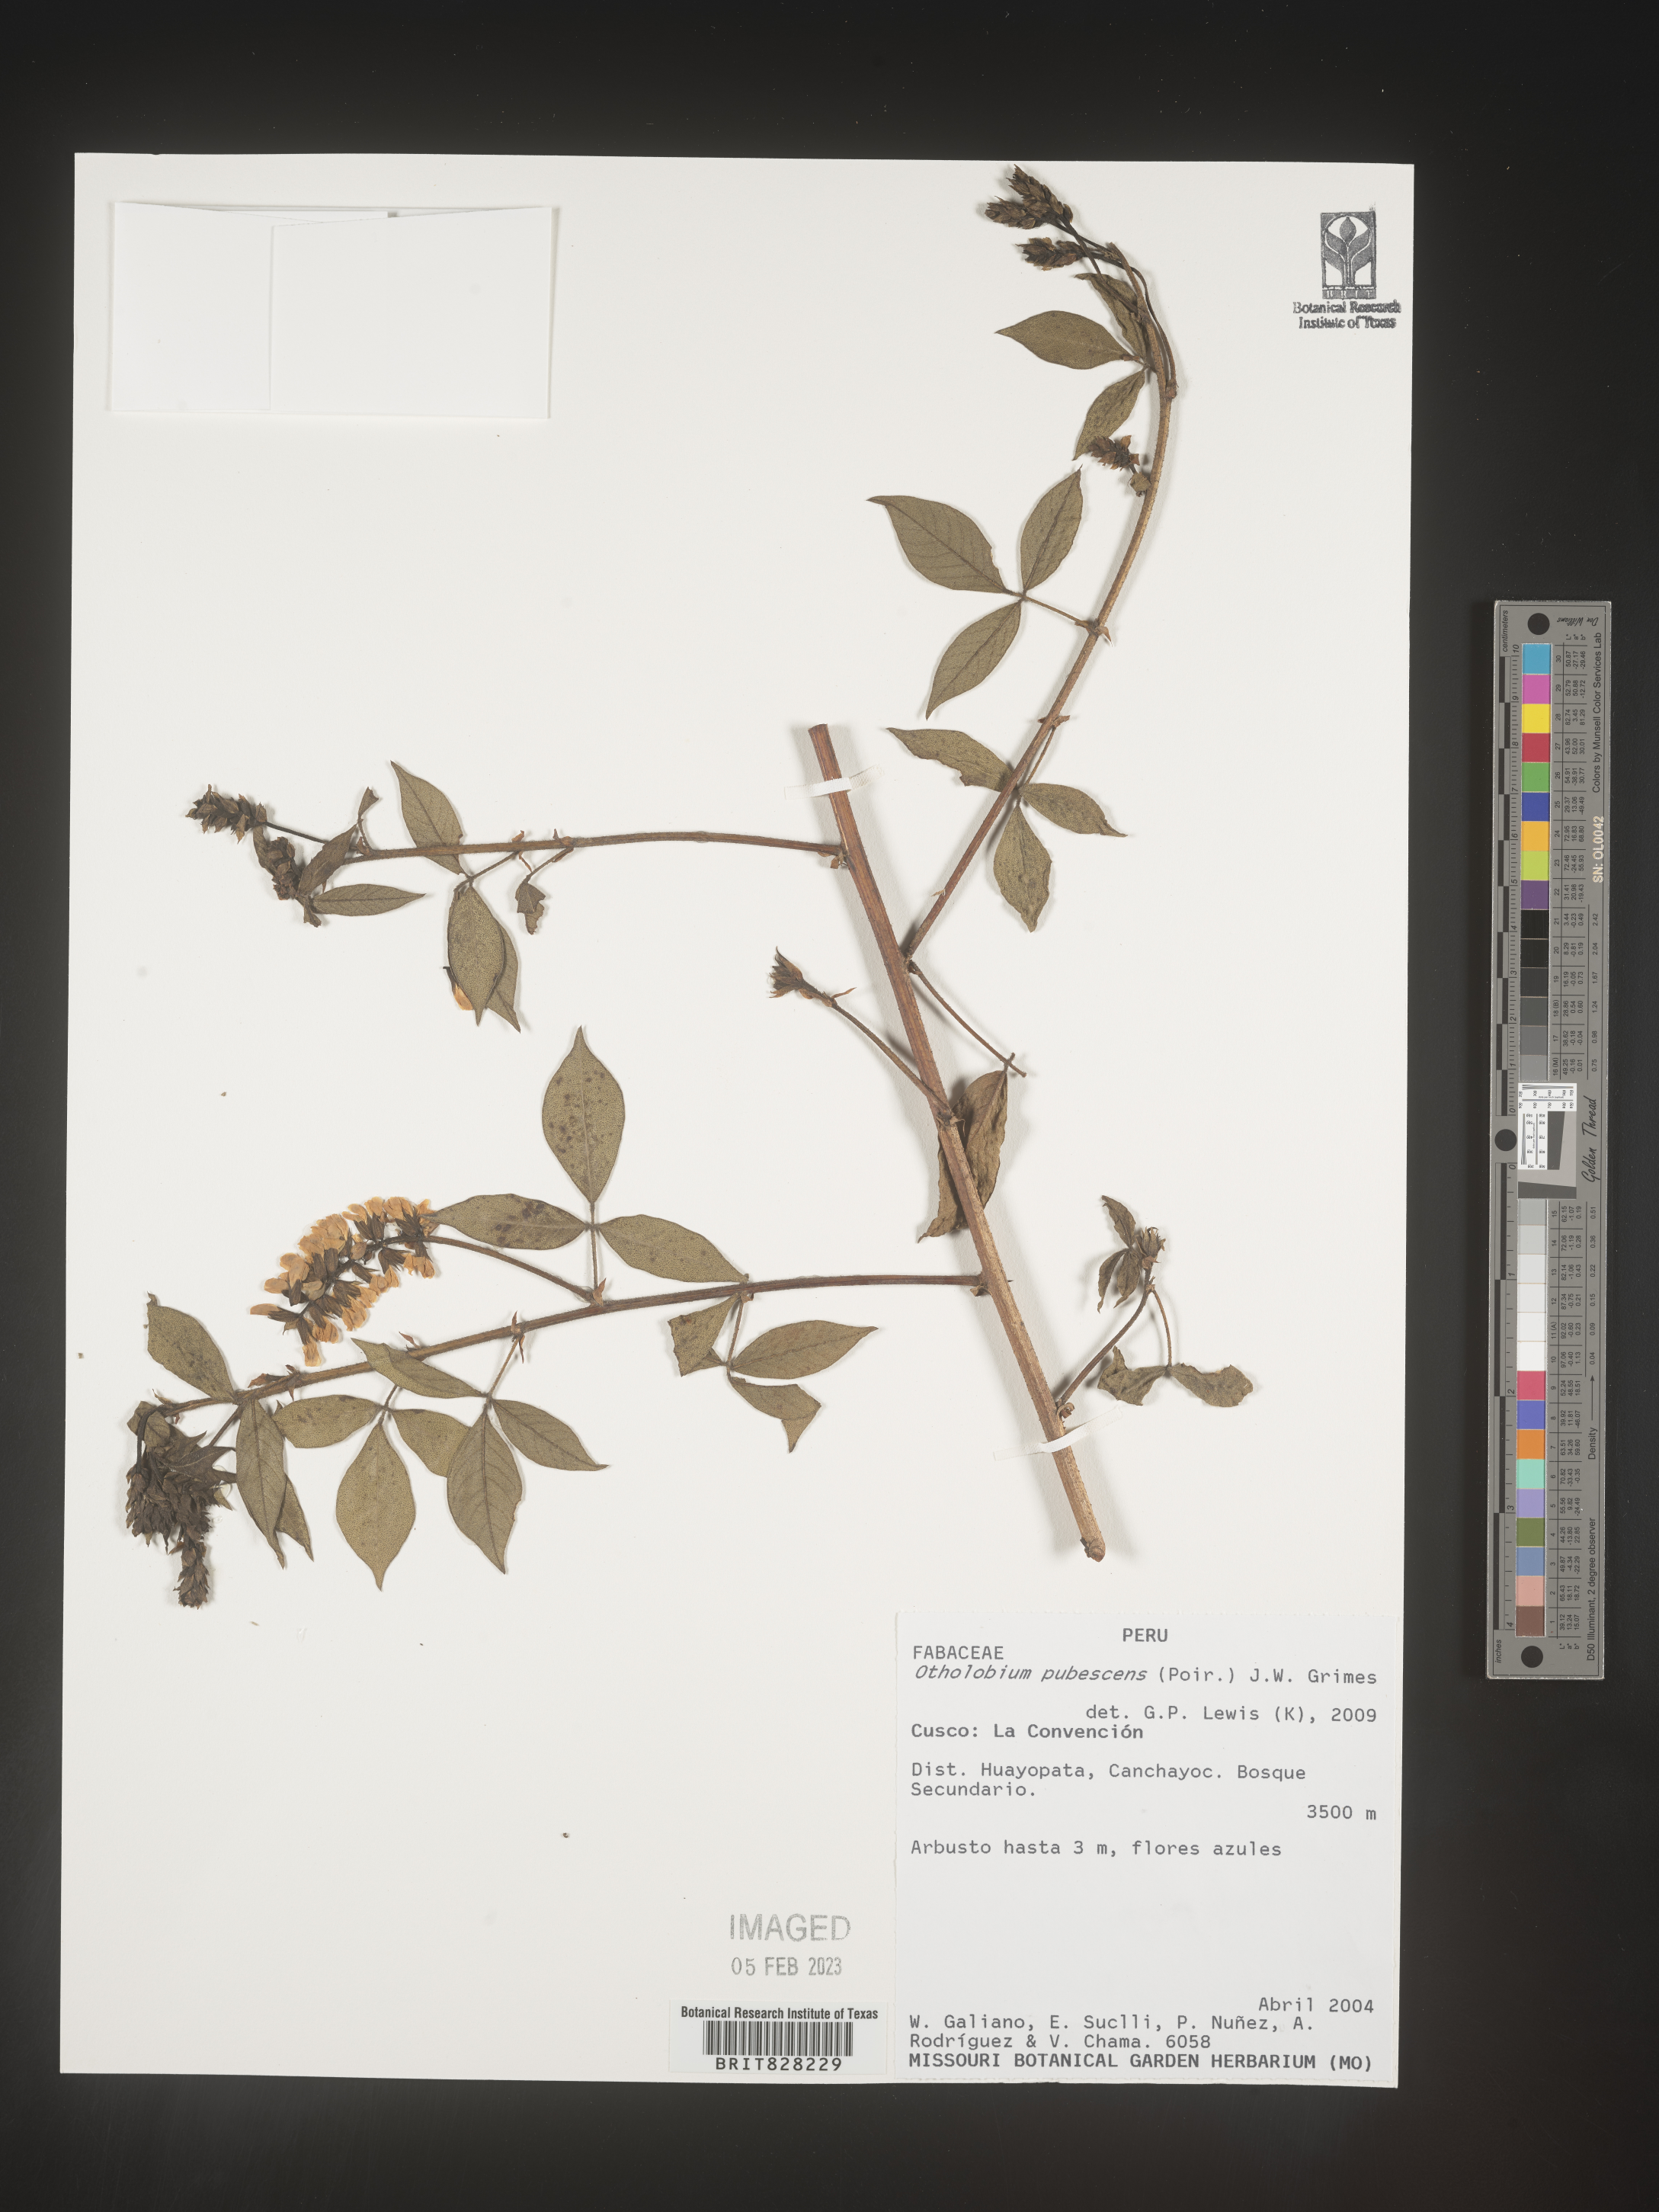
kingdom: Plantae
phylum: Tracheophyta
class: Magnoliopsida
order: Fabales
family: Fabaceae
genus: Otholobium
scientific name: Otholobium
